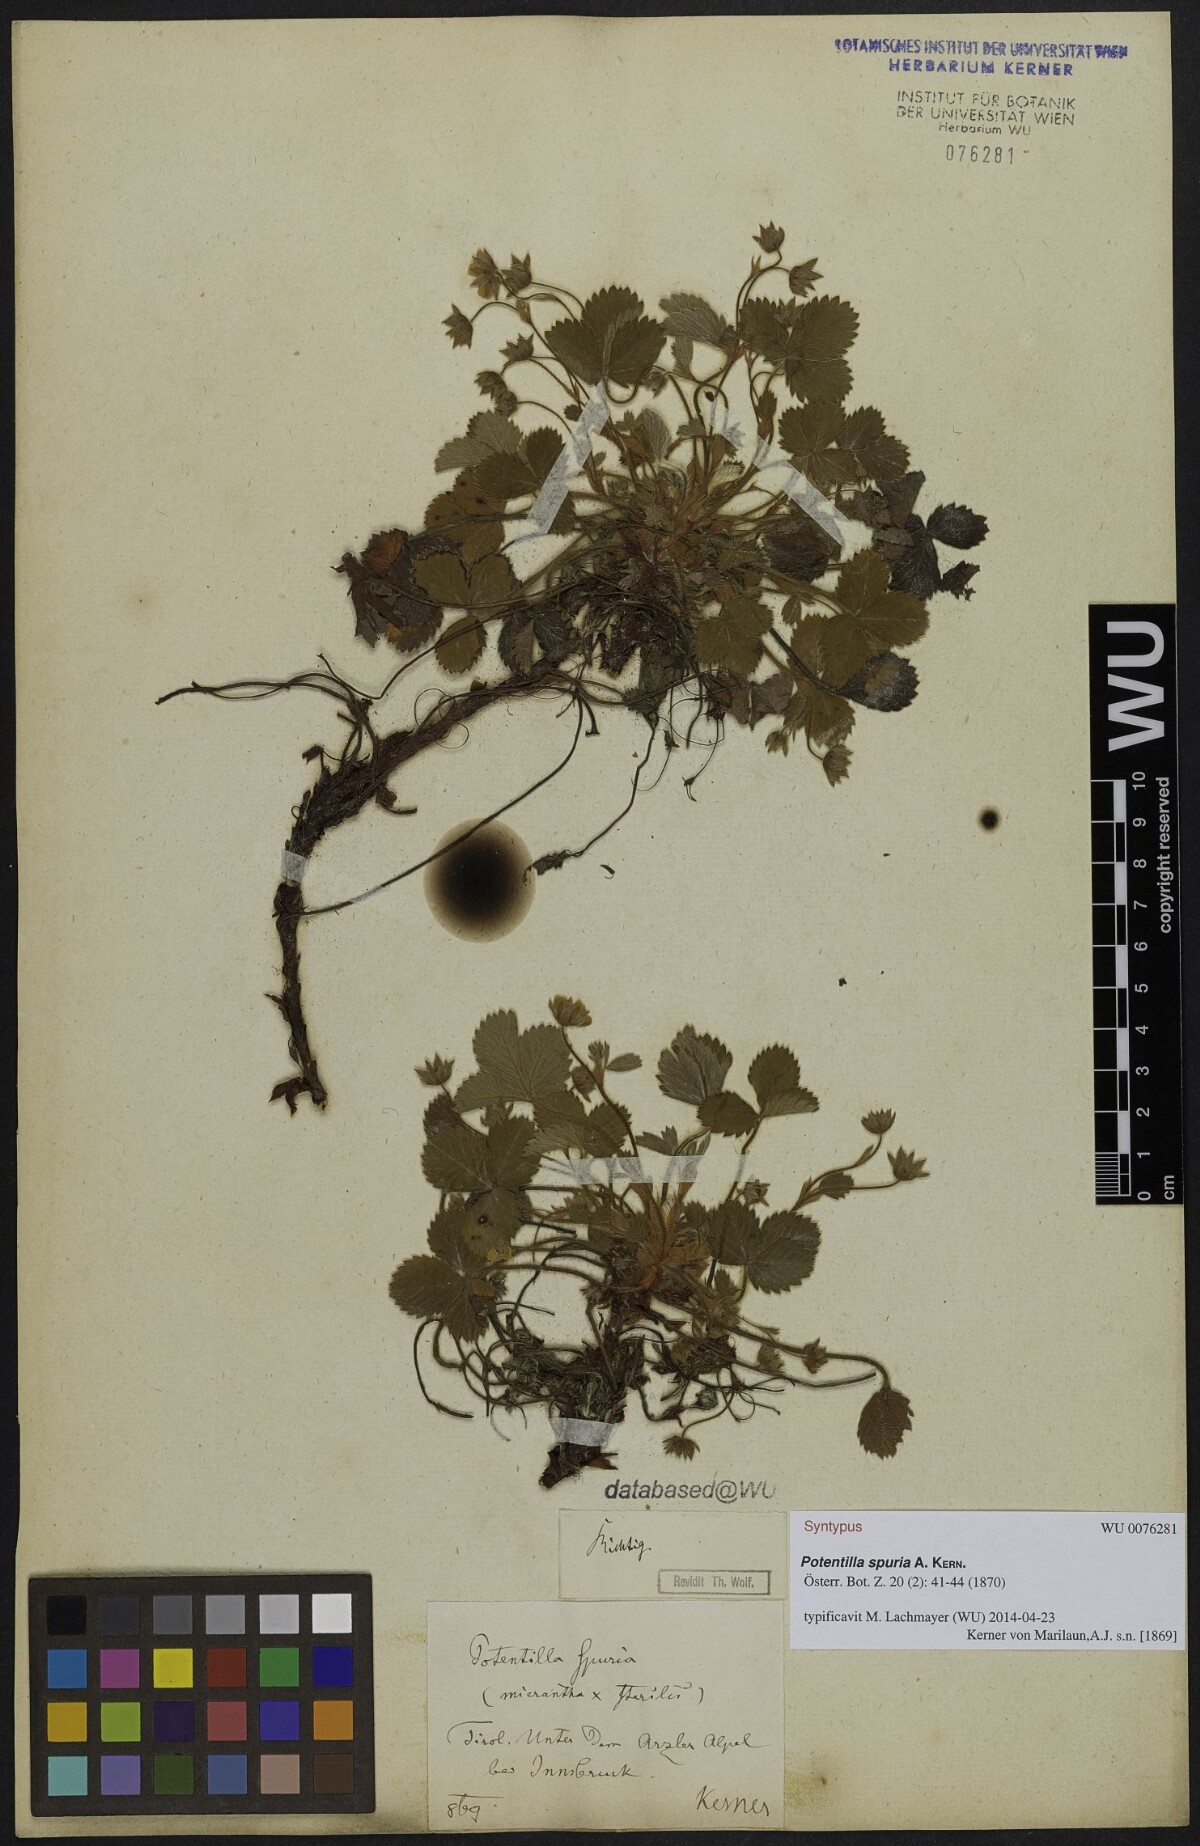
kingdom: Plantae
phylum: Tracheophyta
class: Magnoliopsida
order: Rosales
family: Rosaceae
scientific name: Rosaceae
